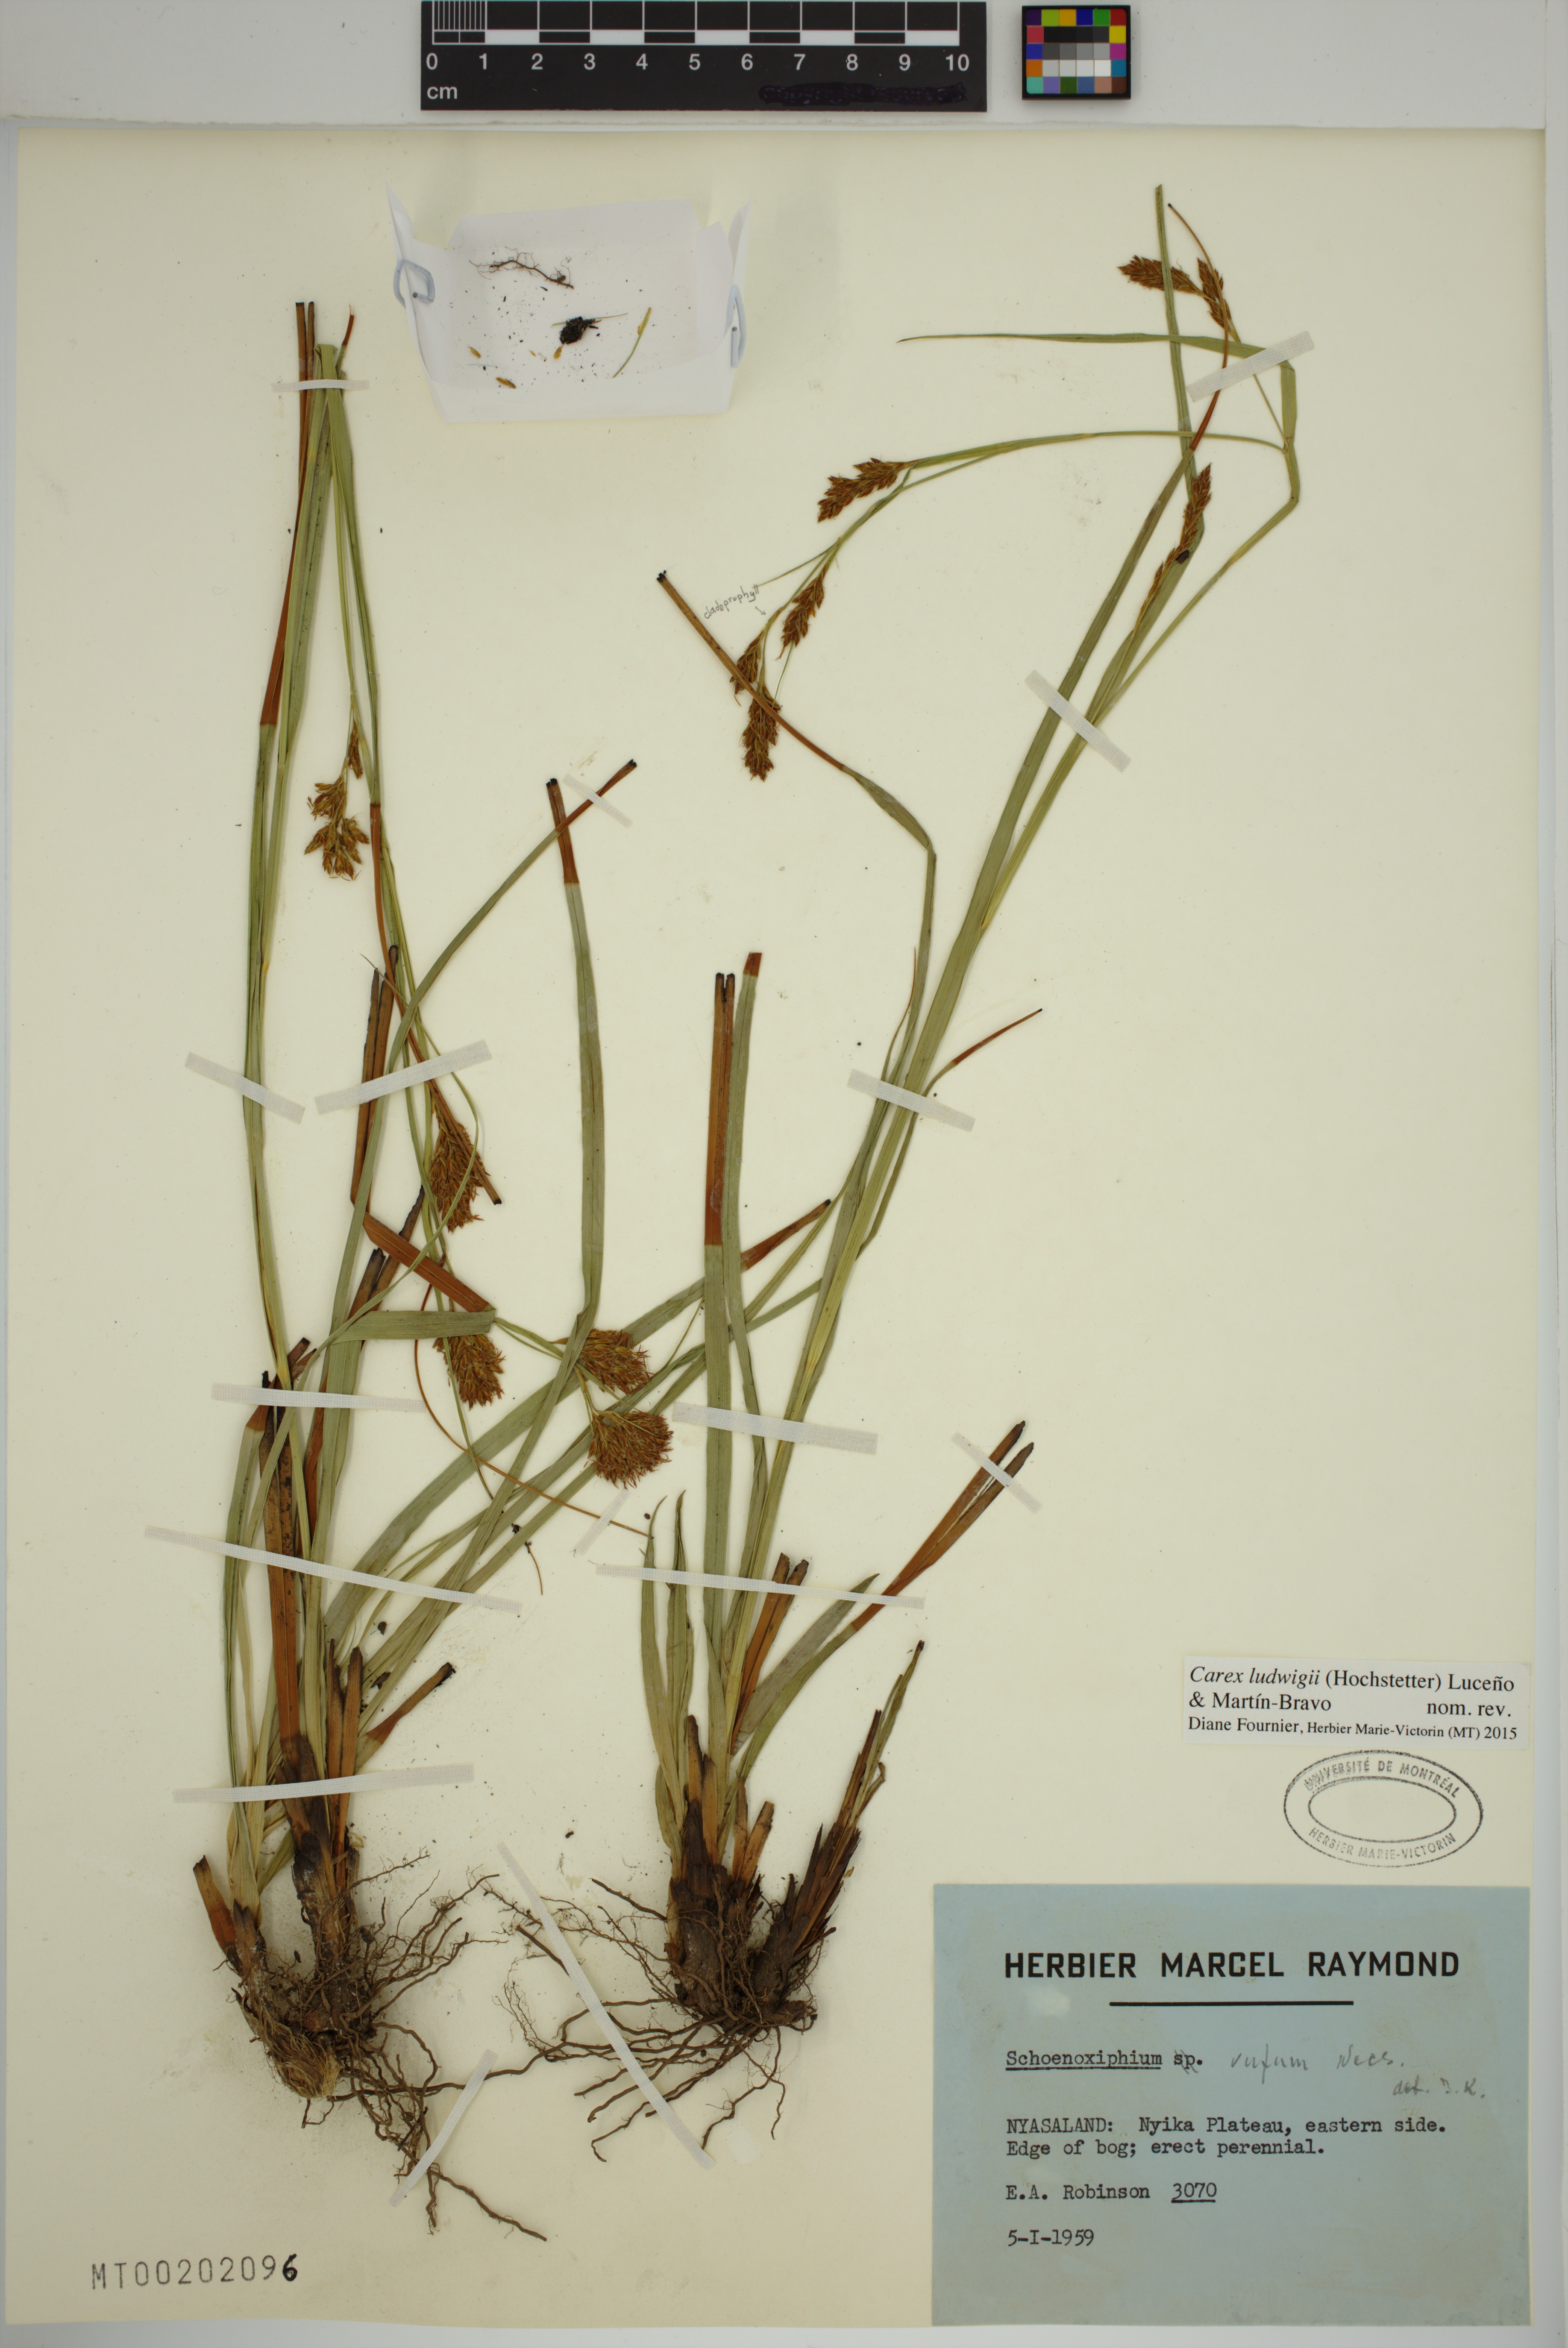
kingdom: Plantae
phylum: Tracheophyta
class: Liliopsida
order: Poales
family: Cyperaceae
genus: Carex
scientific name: Carex ludwigii
